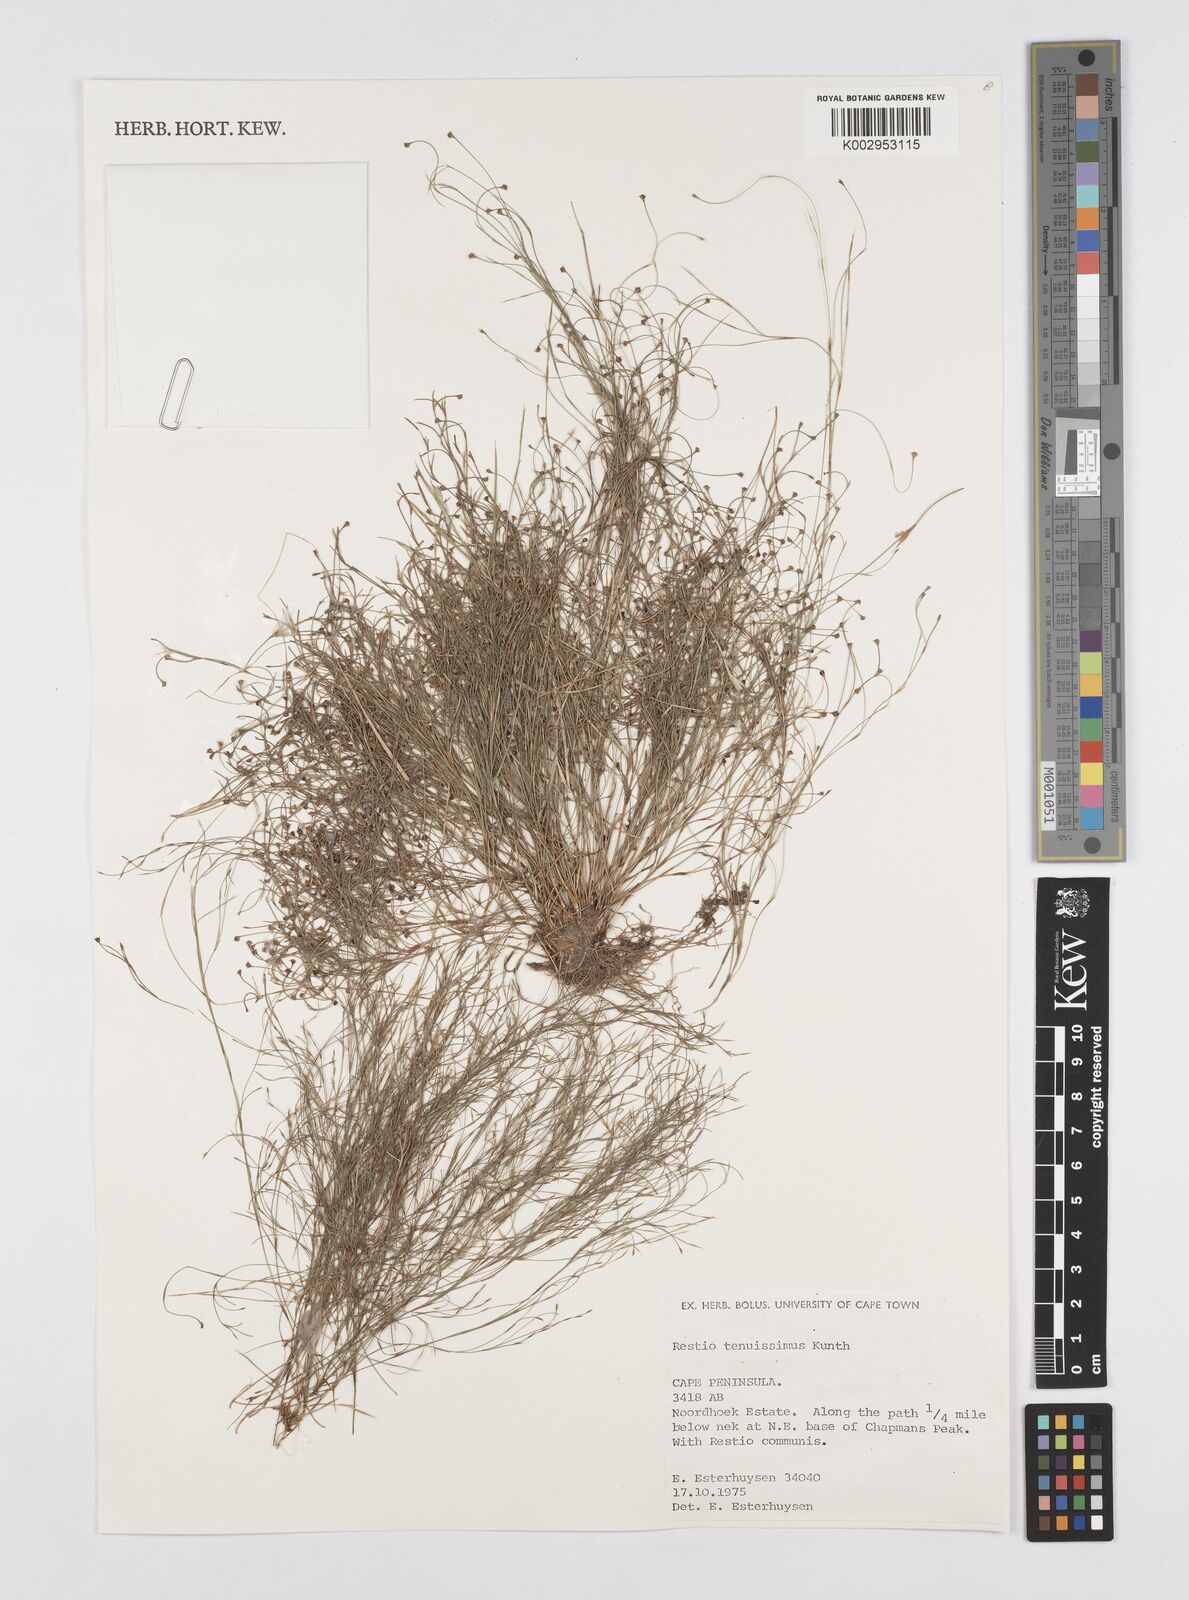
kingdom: Plantae
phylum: Tracheophyta
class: Liliopsida
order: Poales
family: Restionaceae
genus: Restio
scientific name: Restio tenuissimus
